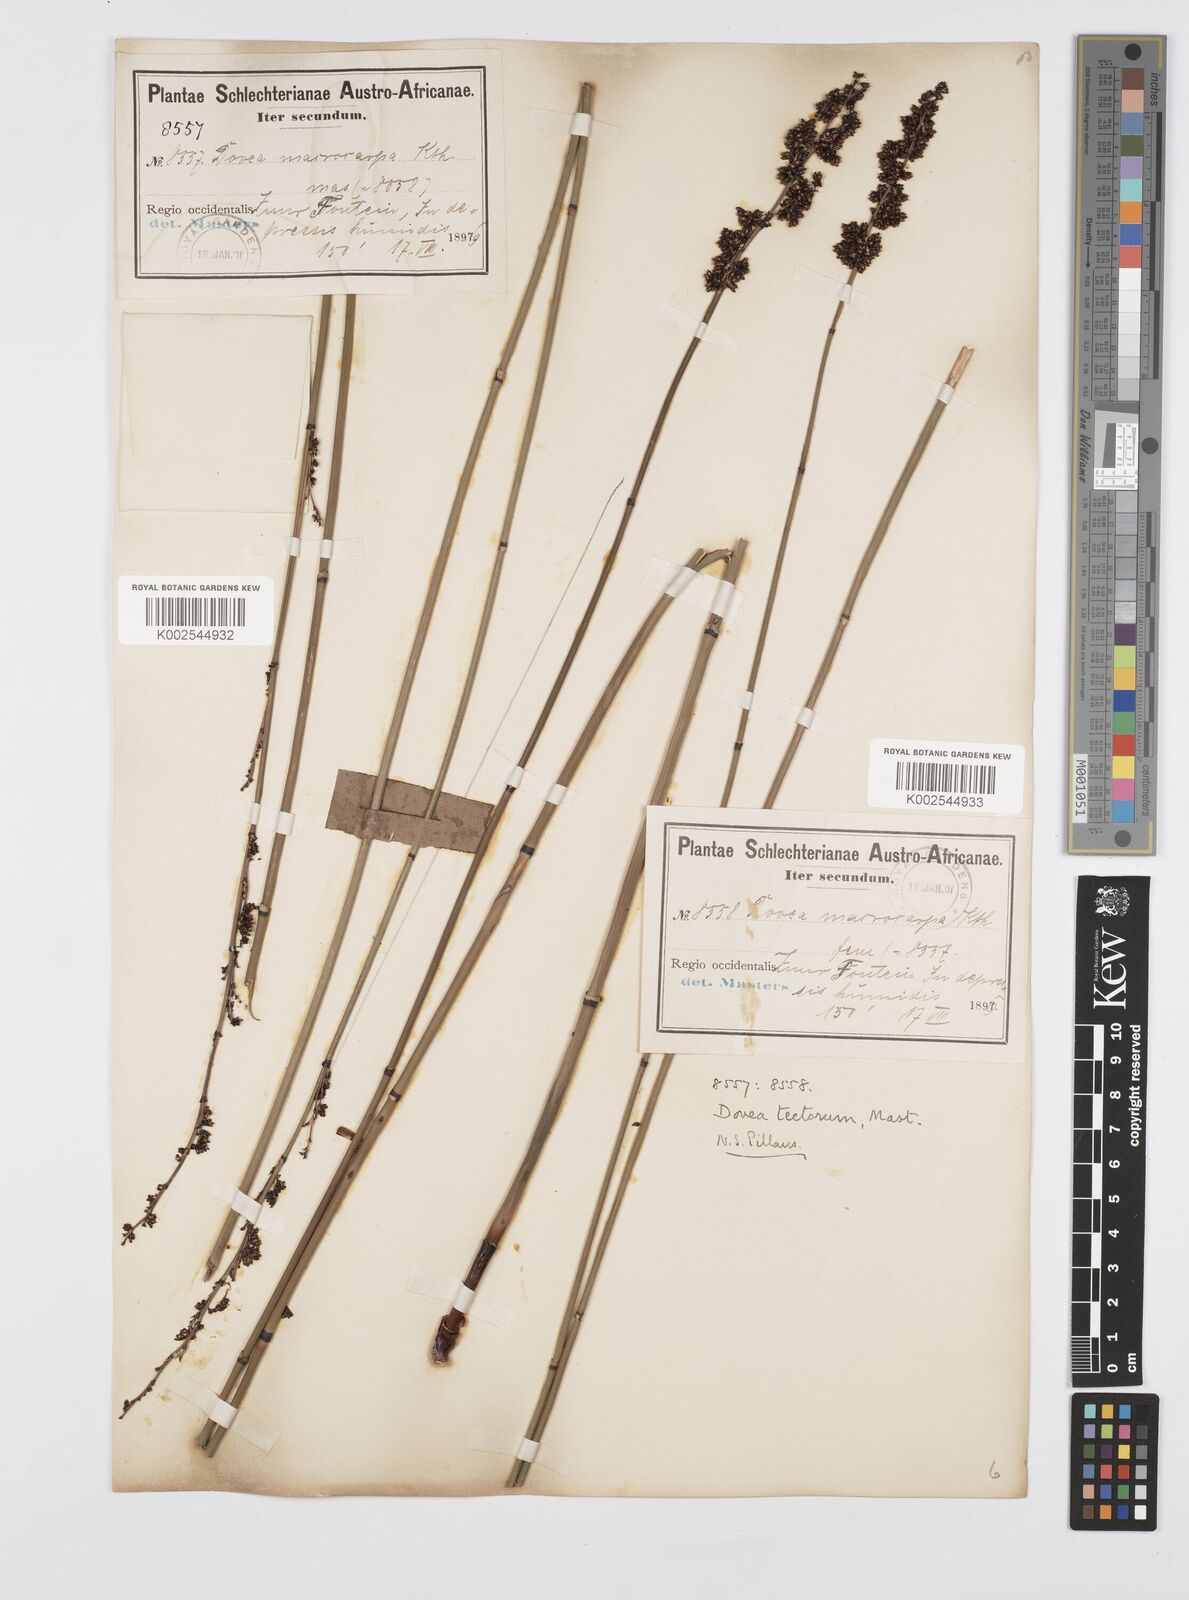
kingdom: Plantae
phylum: Tracheophyta
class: Liliopsida
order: Poales
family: Restionaceae
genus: Elegia
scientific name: Elegia tectorum
